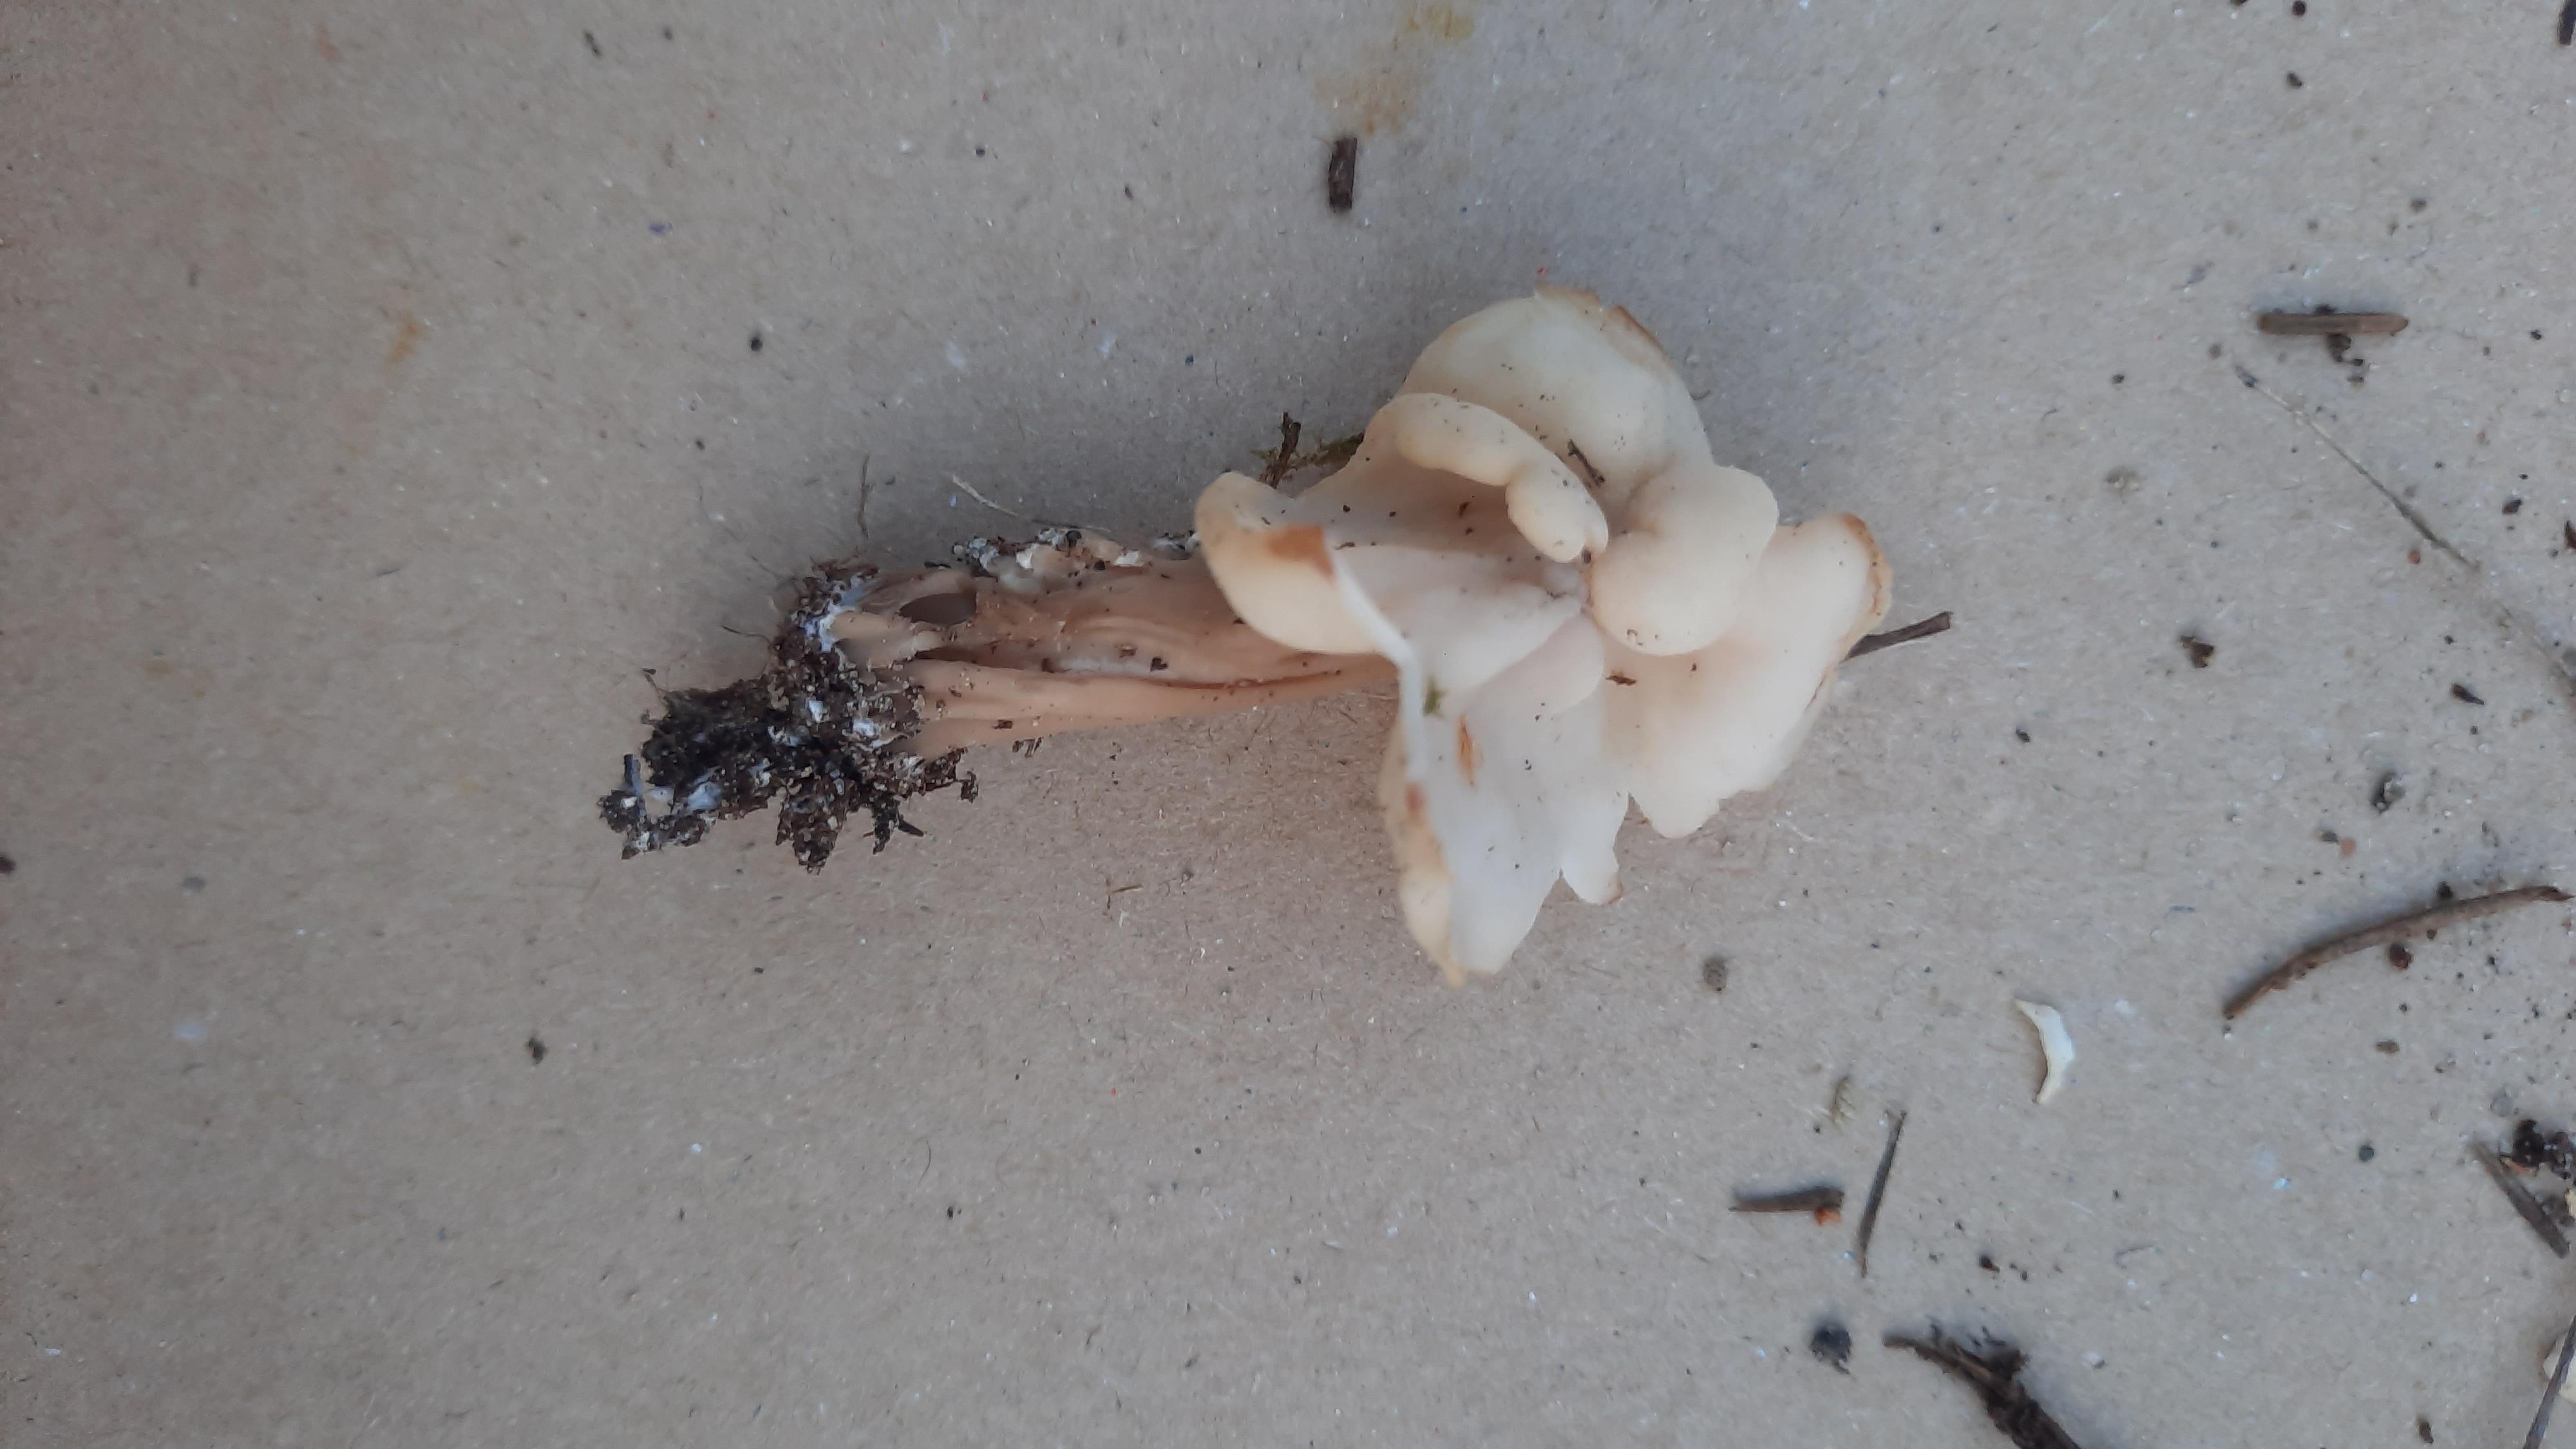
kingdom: Fungi
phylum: Ascomycota
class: Pezizomycetes
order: Pezizales
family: Helvellaceae
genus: Helvella
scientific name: Helvella crispa
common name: kruset foldhat
